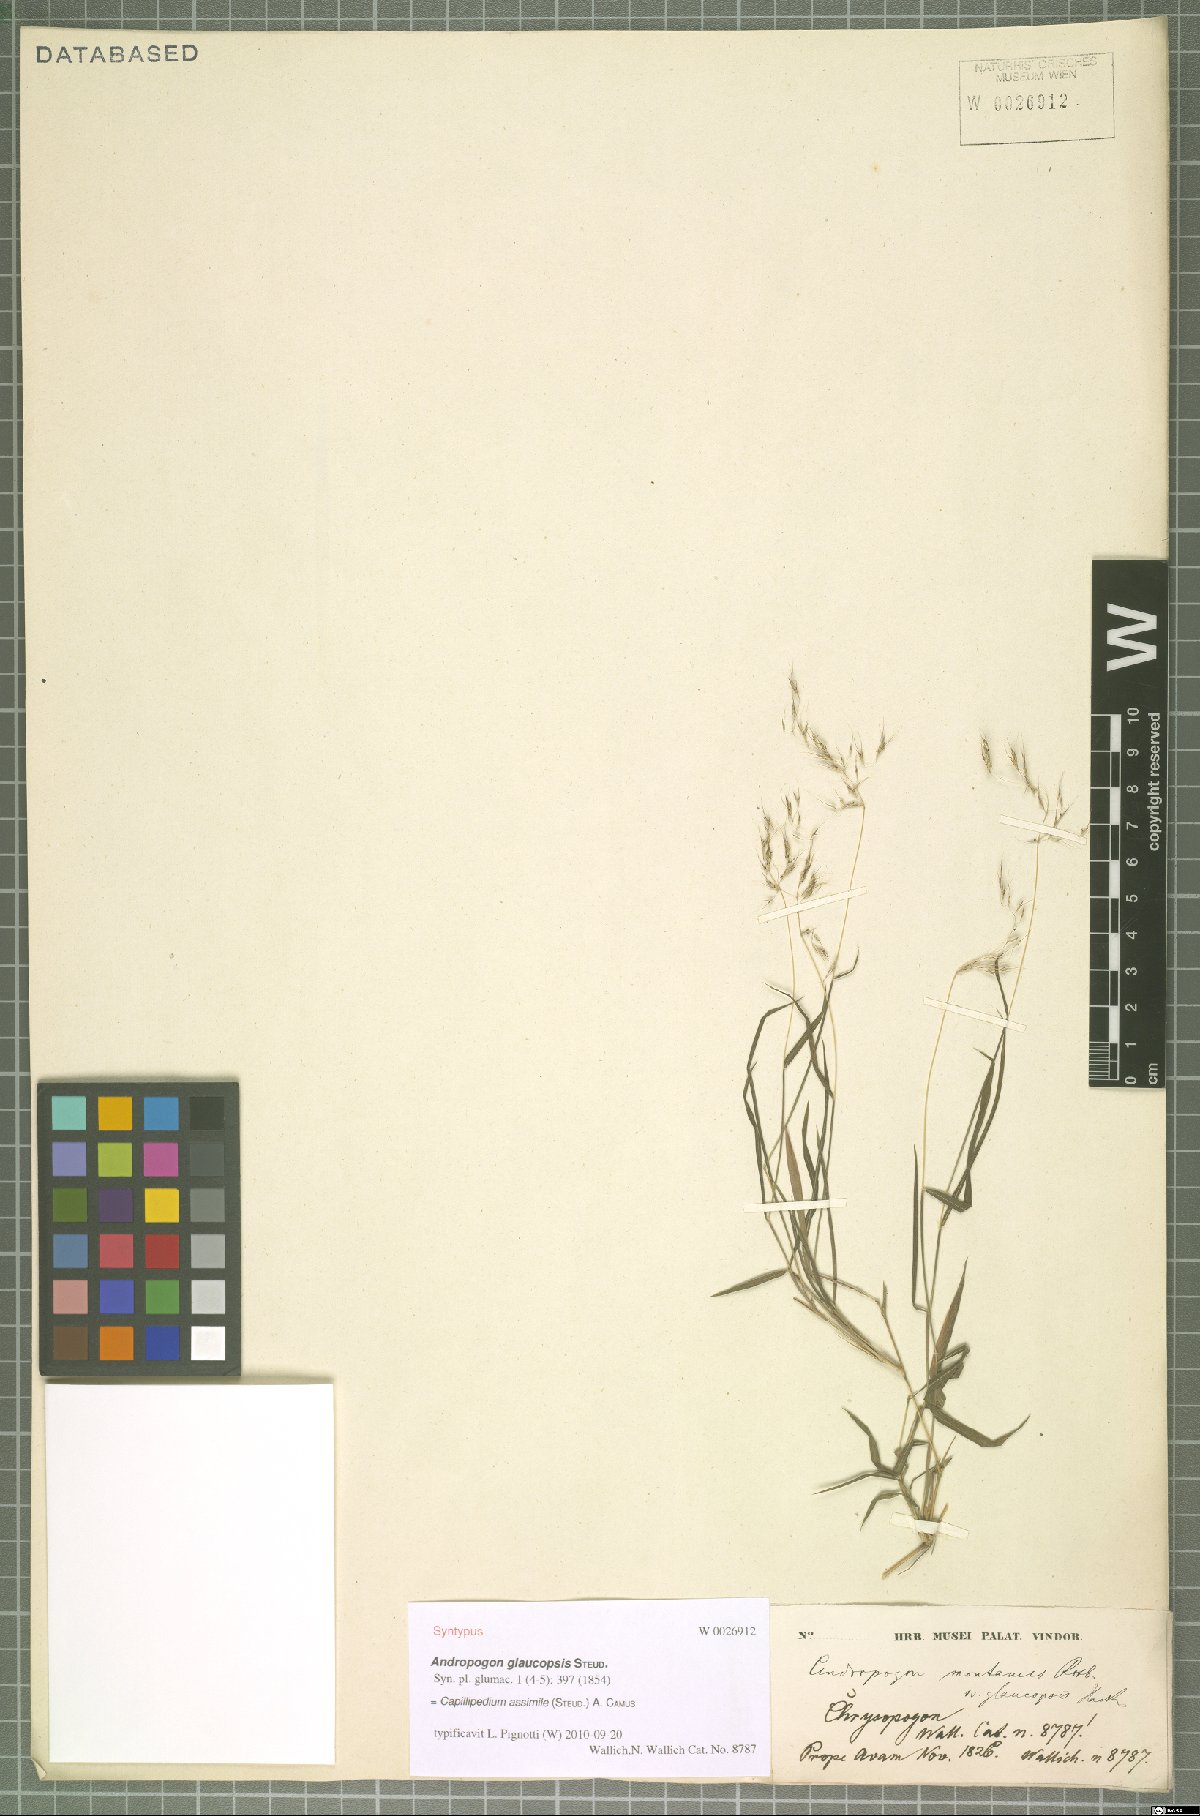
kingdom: Plantae
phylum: Tracheophyta
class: Liliopsida
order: Poales
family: Poaceae
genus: Capillipedium
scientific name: Capillipedium assimile
